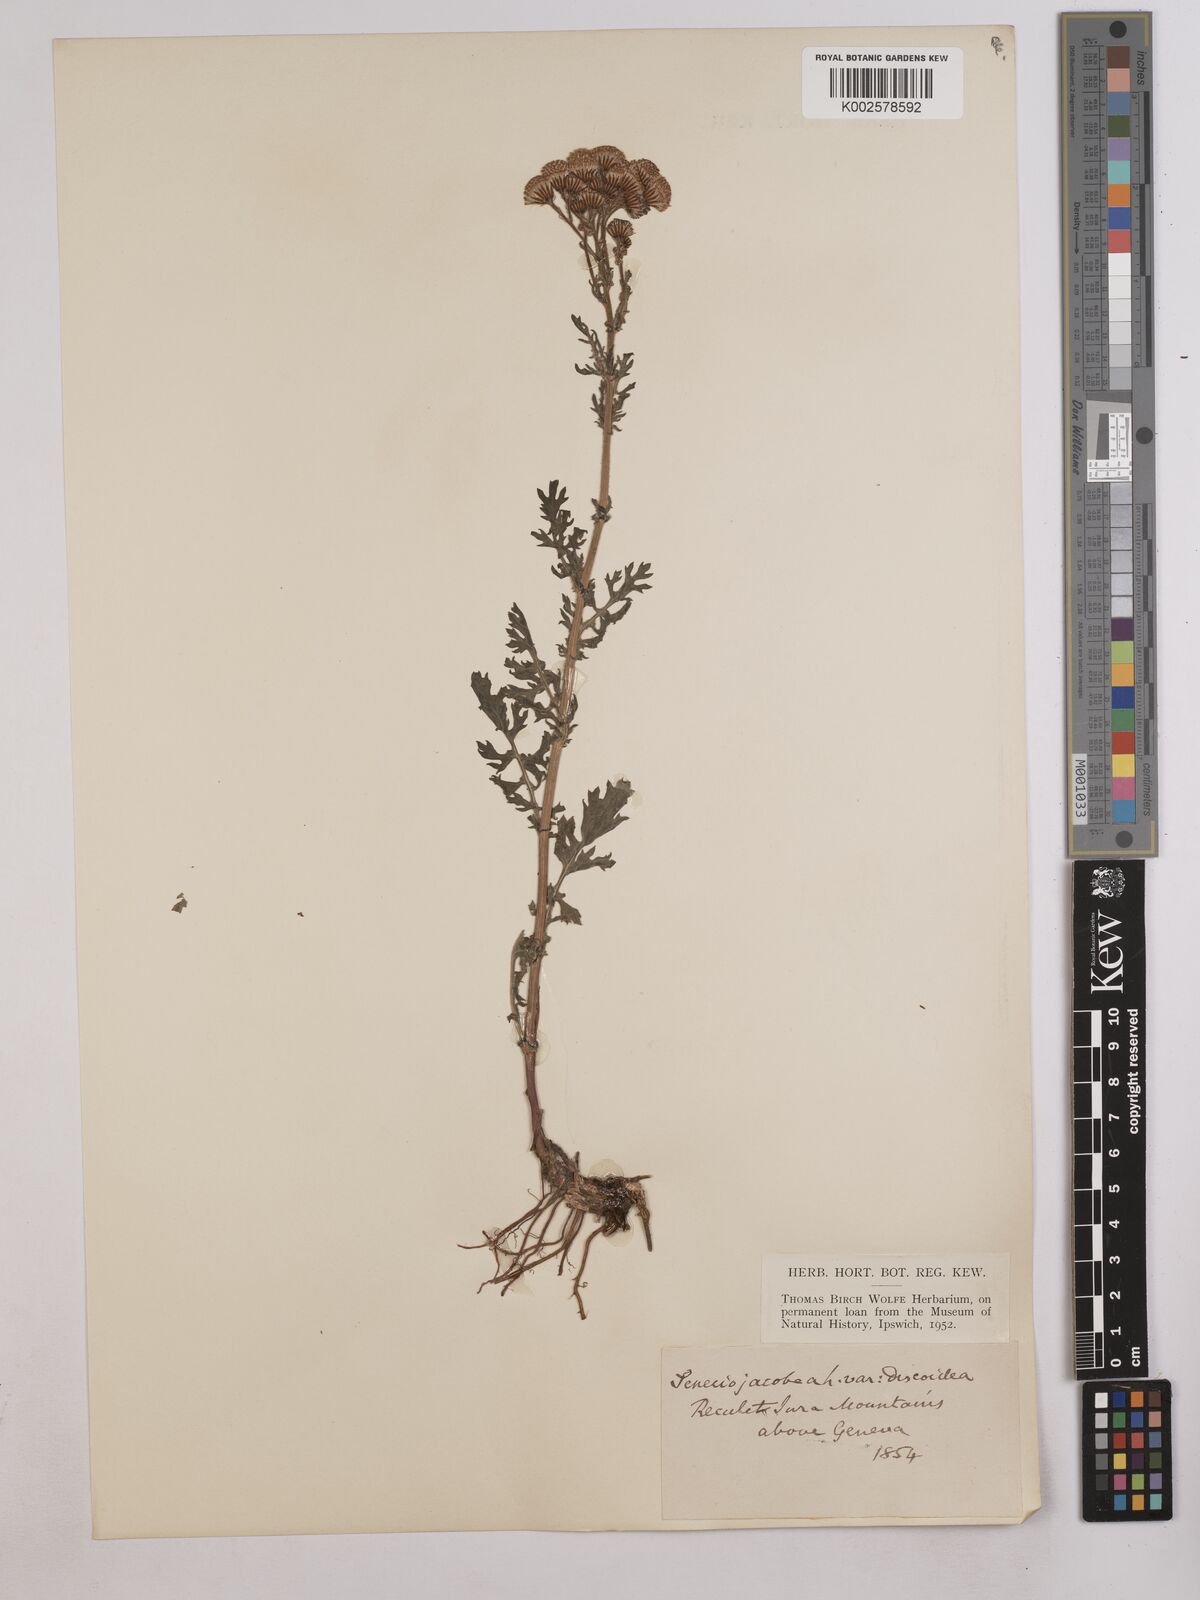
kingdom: Plantae
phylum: Tracheophyta
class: Magnoliopsida
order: Asterales
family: Asteraceae
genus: Jacobaea
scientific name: Jacobaea vulgaris
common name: Stinking willie
